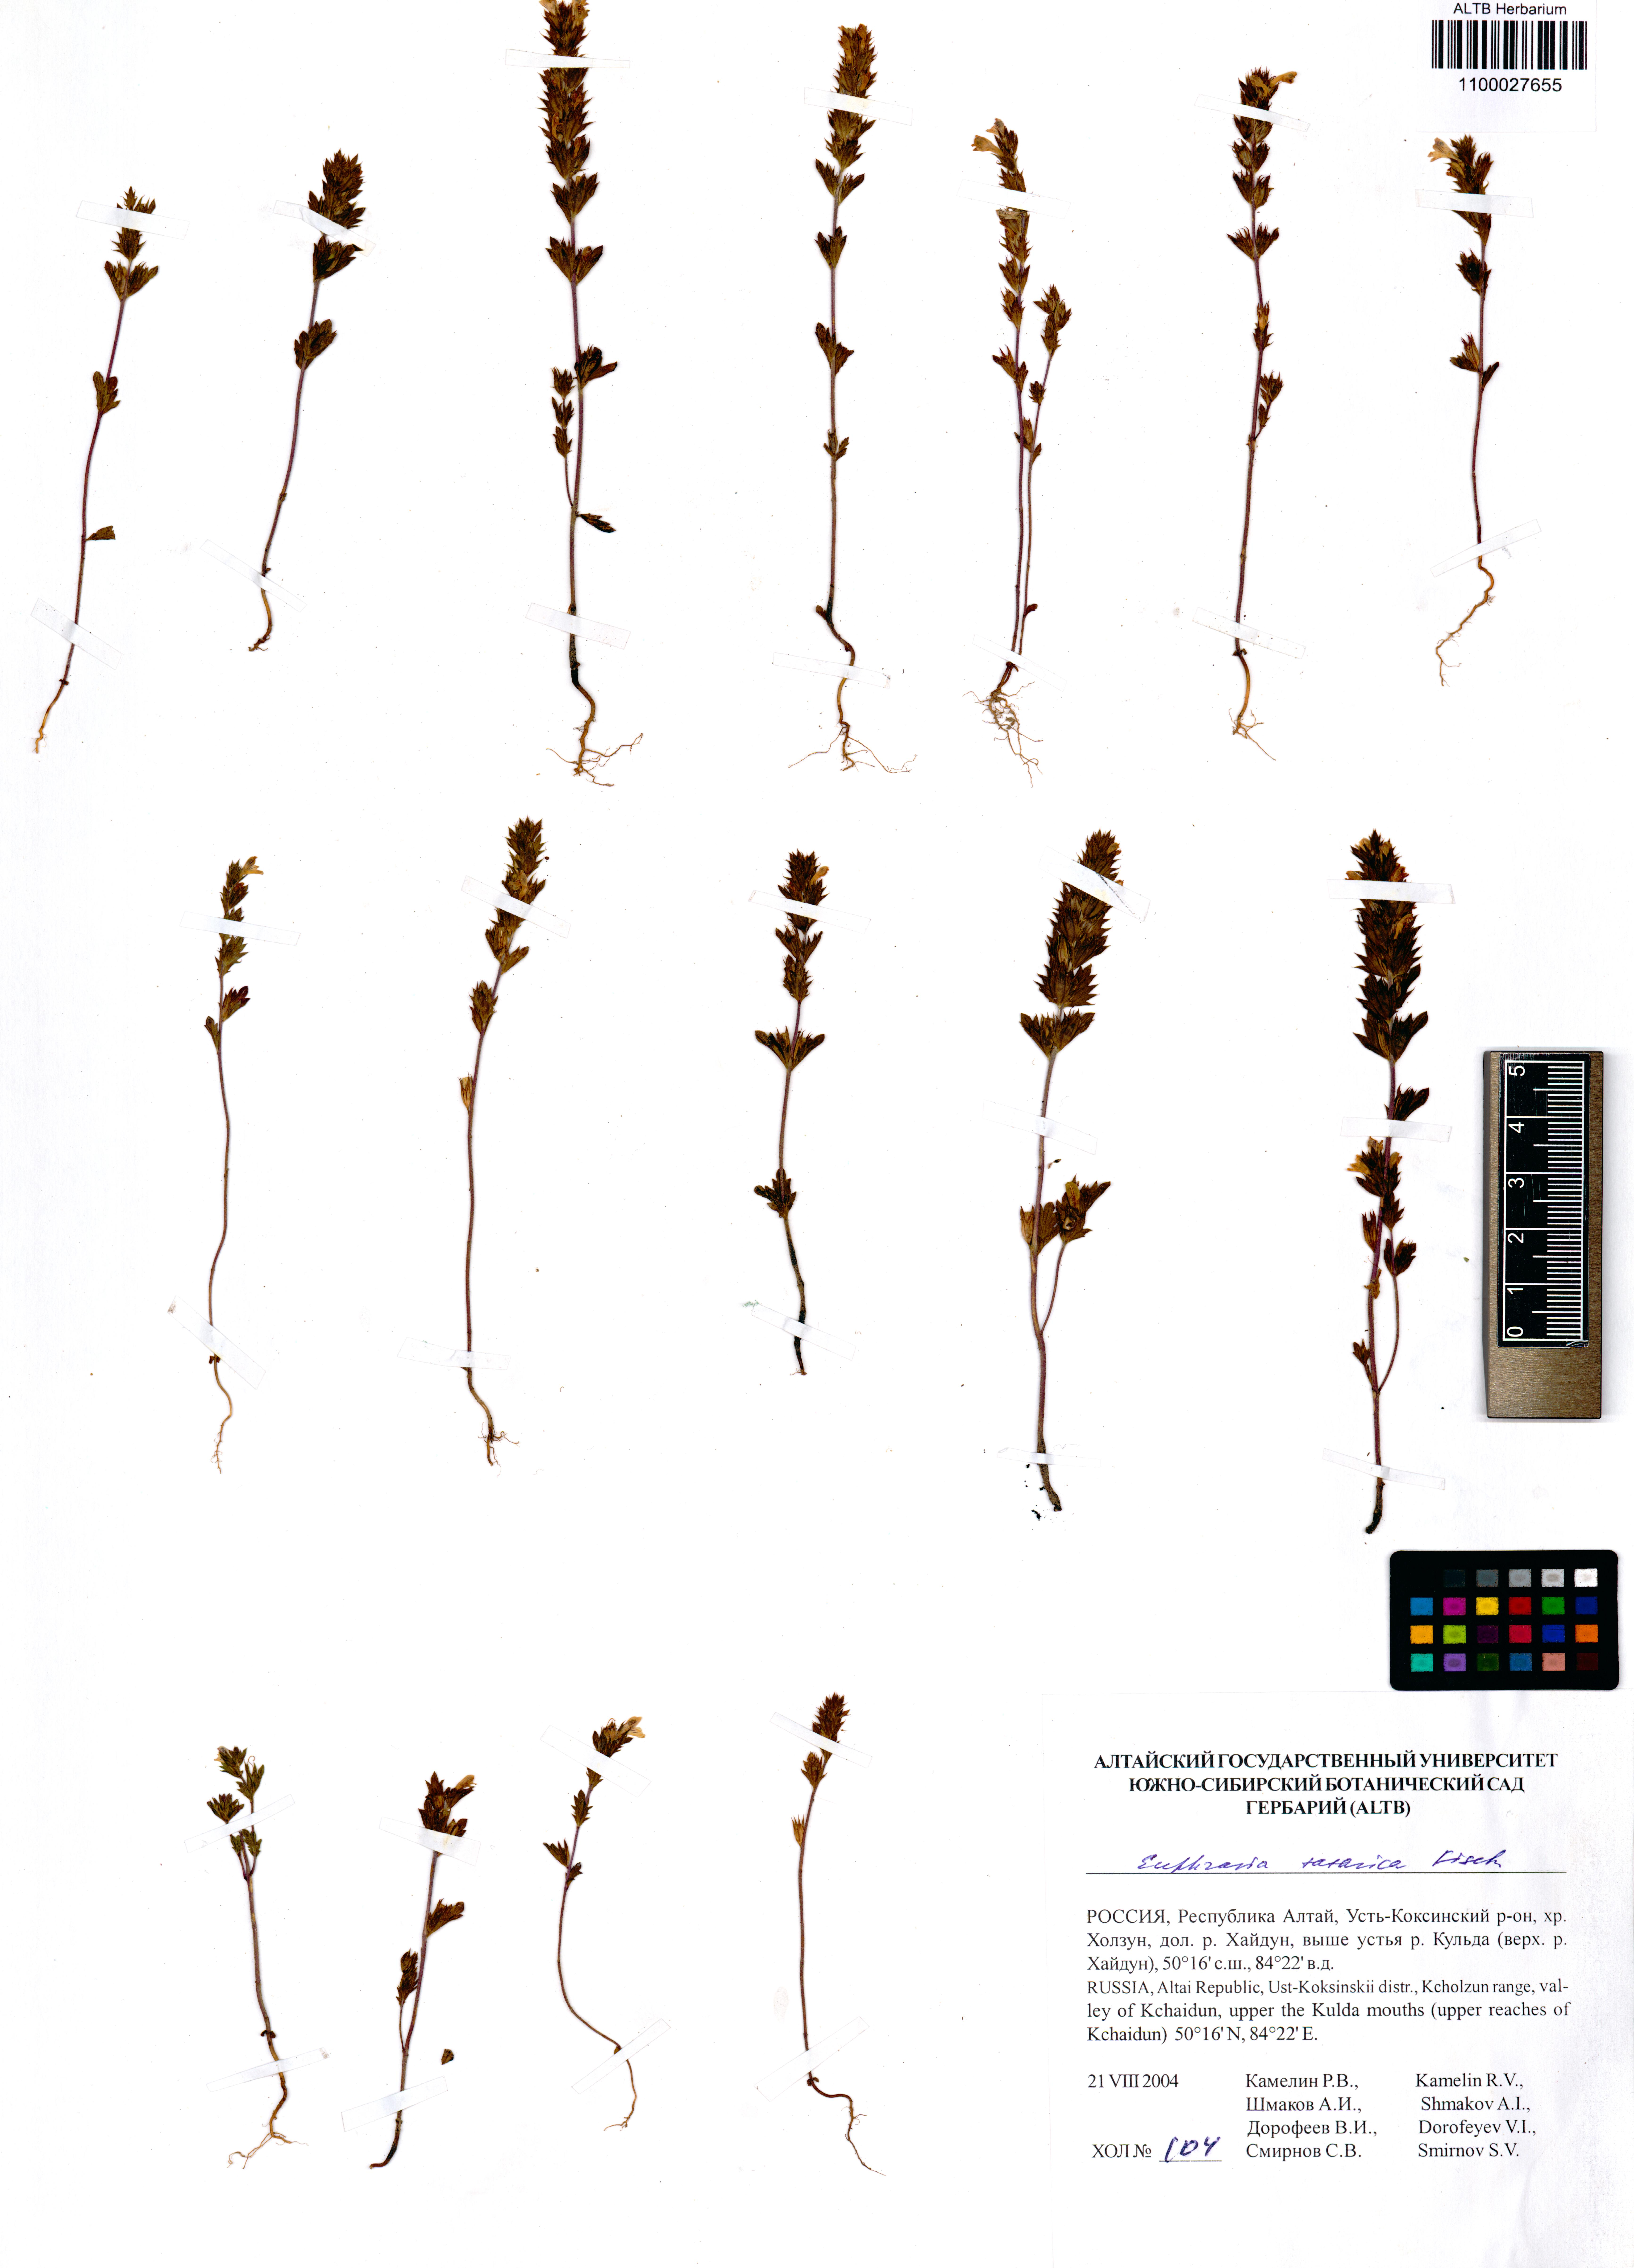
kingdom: Plantae
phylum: Tracheophyta
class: Magnoliopsida
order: Lamiales
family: Orobanchaceae
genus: Euphrasia
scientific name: Euphrasia pectinata
